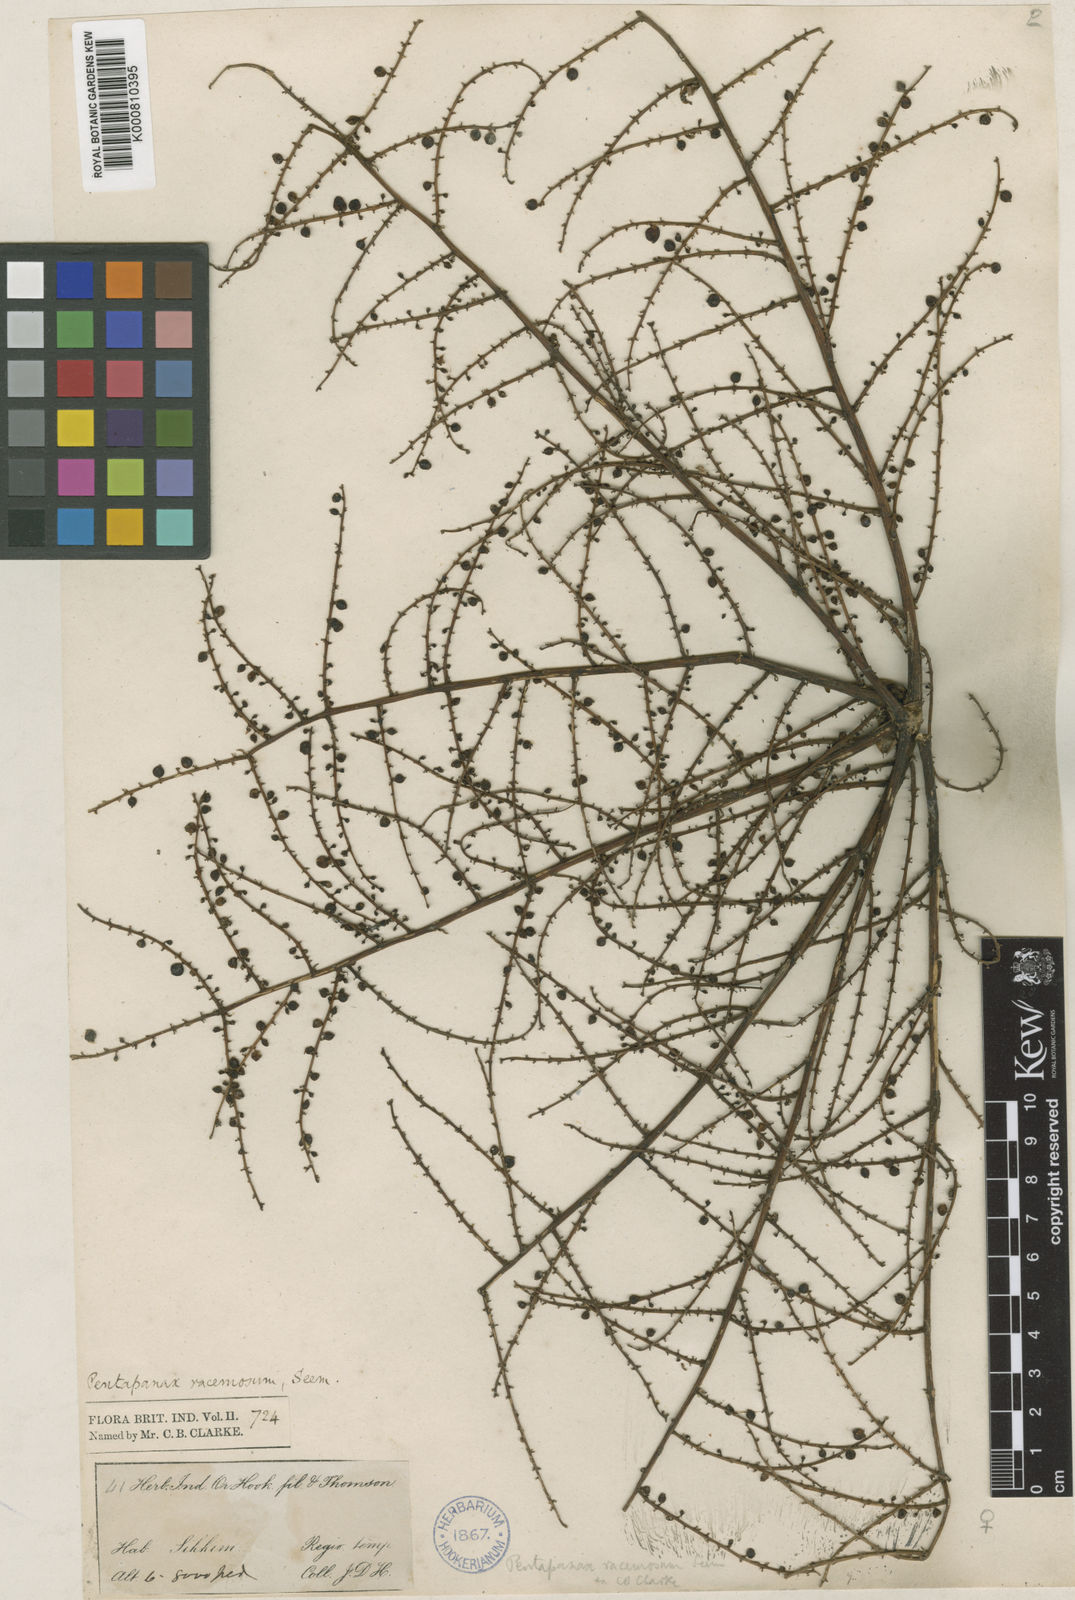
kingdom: Plantae
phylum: Tracheophyta
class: Magnoliopsida
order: Apiales
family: Araliaceae
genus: Aralia
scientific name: Aralia racemosa
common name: American-spikenard
